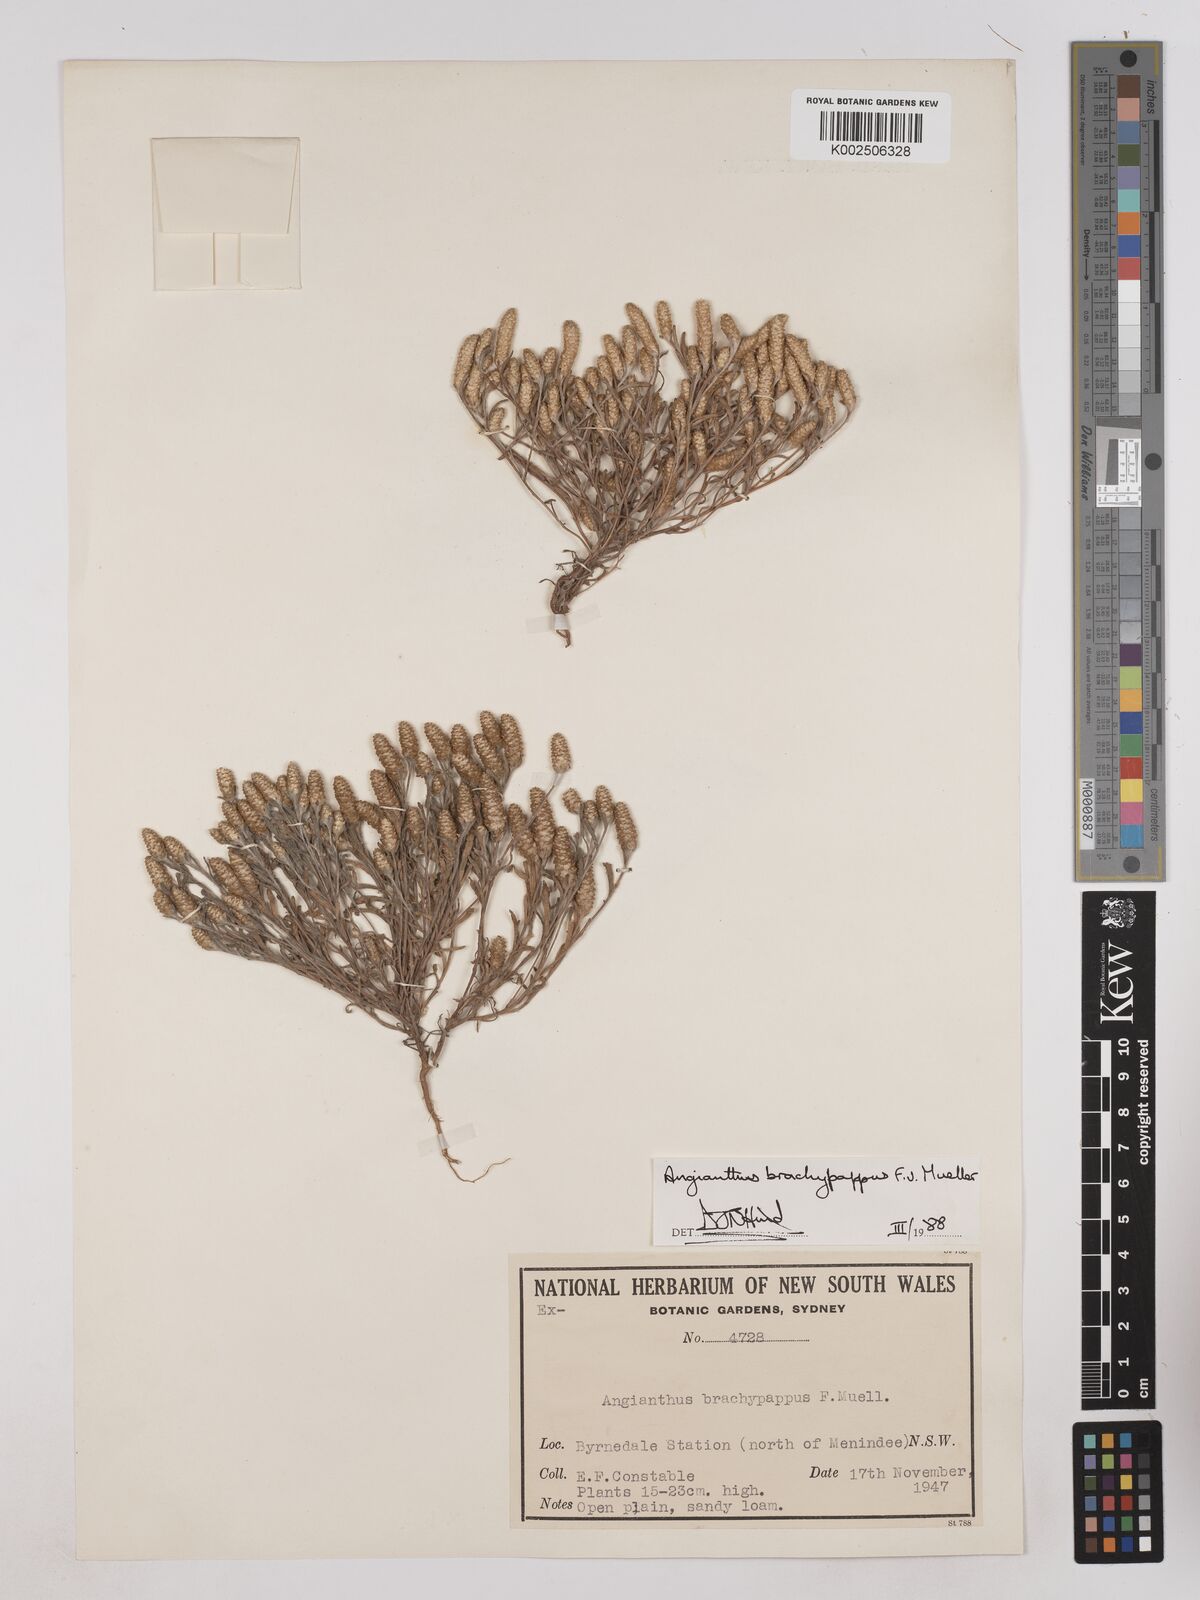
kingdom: Plantae
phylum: Tracheophyta
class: Magnoliopsida
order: Asterales
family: Asteraceae
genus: Angianthus
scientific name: Angianthus brachypappus
